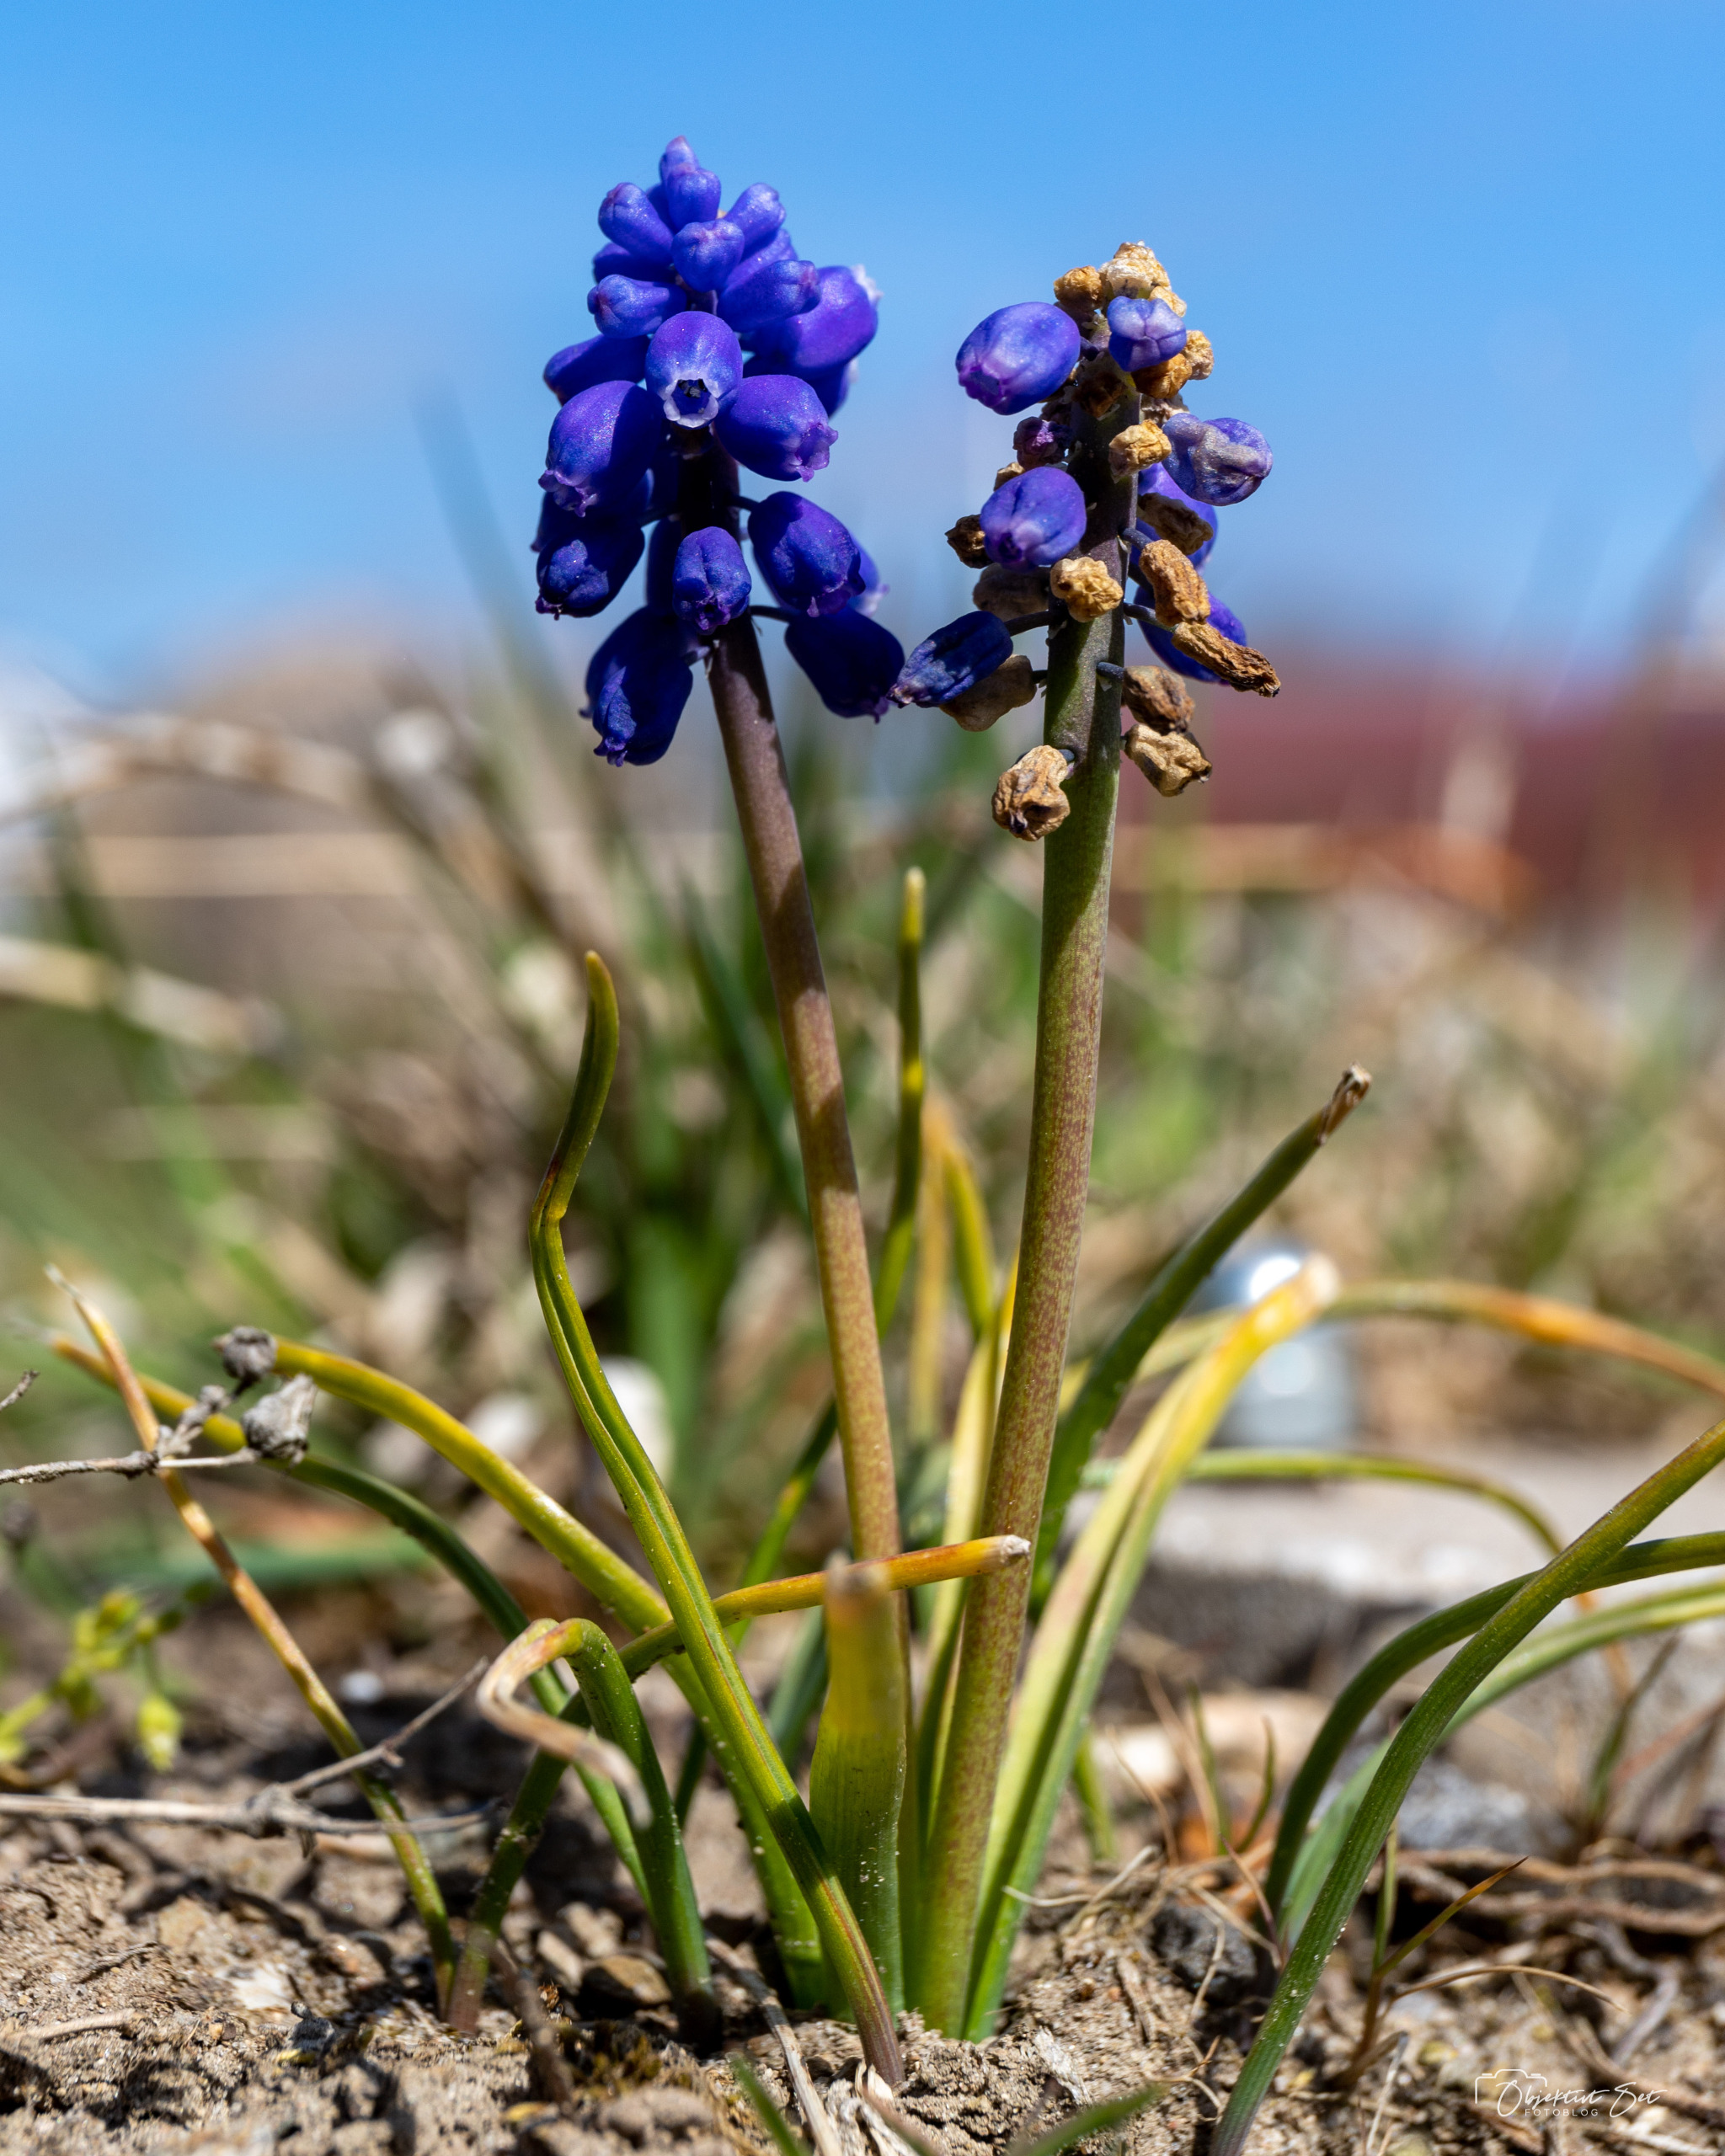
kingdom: Plantae
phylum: Tracheophyta
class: Liliopsida
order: Asparagales
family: Asparagaceae
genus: Muscari
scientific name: Muscari armeniacum
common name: Armensk perlehyacint
